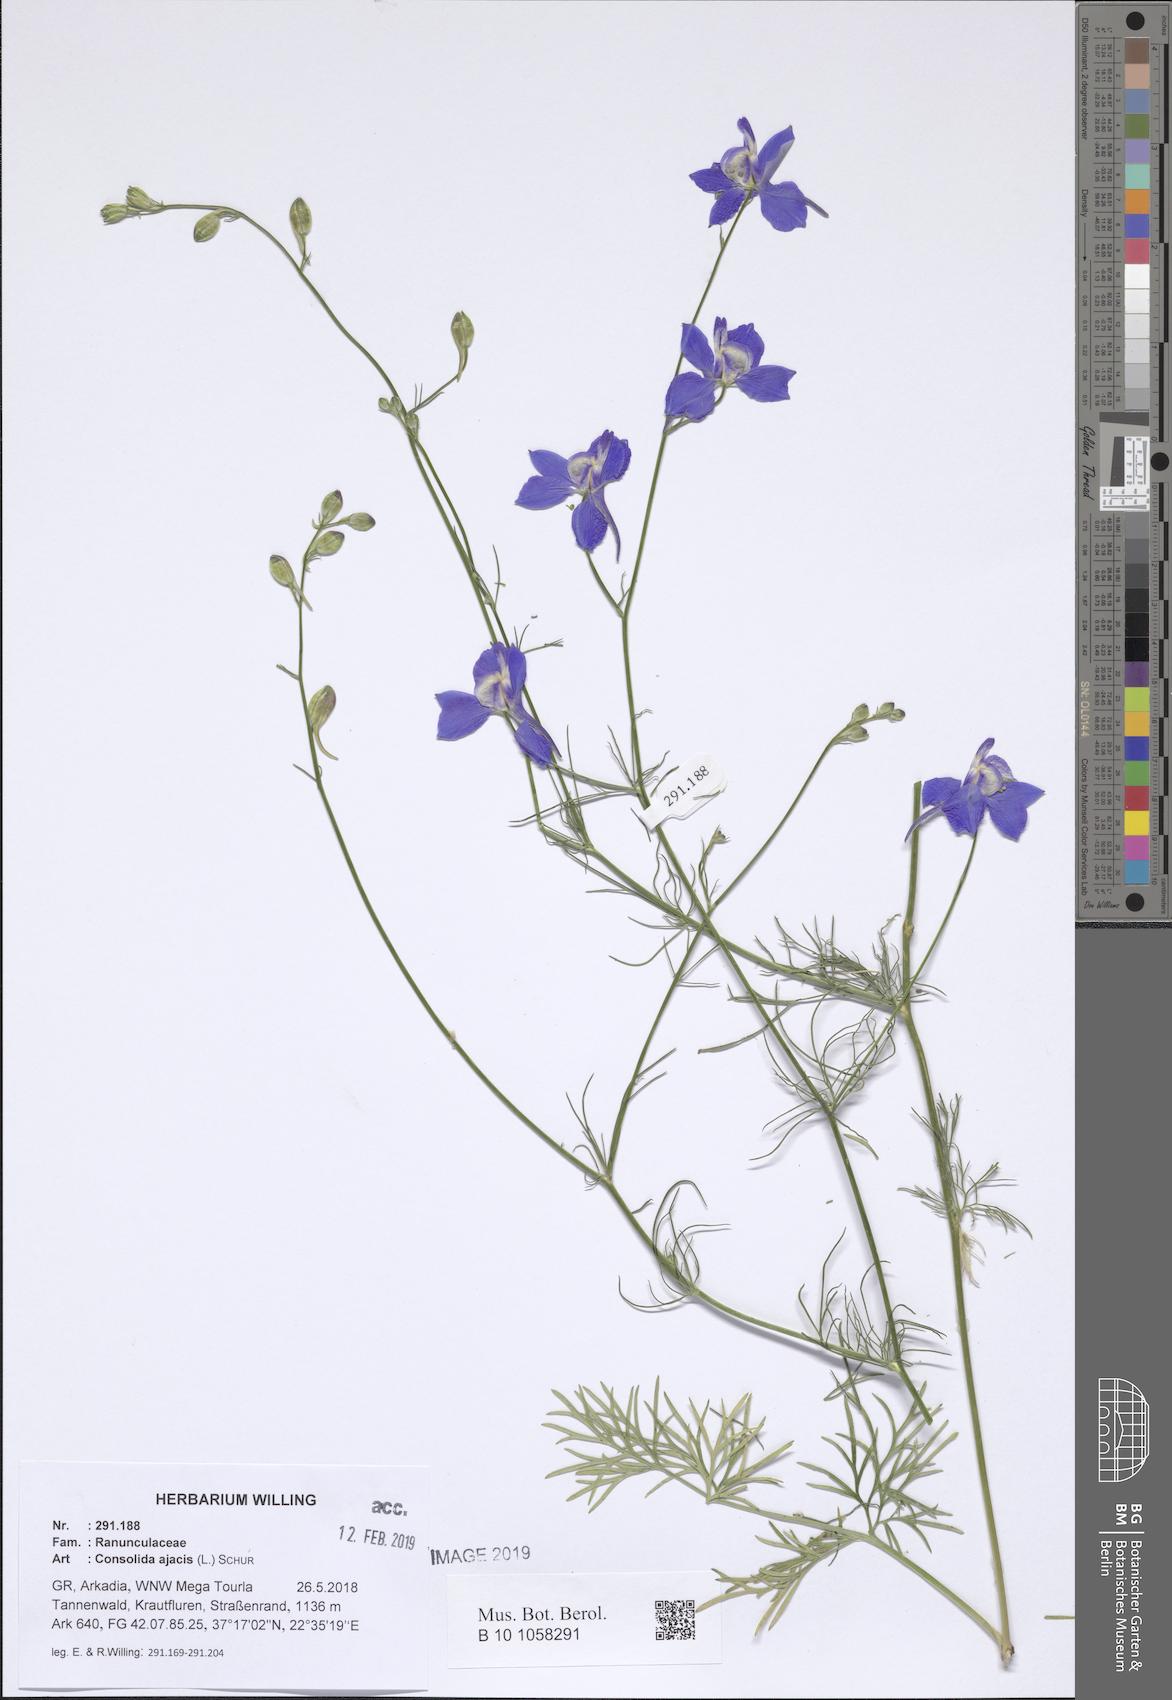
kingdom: Plantae
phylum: Tracheophyta
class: Magnoliopsida
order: Ranunculales
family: Ranunculaceae
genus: Delphinium
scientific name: Delphinium ajacis
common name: Doubtful knight's-spur
